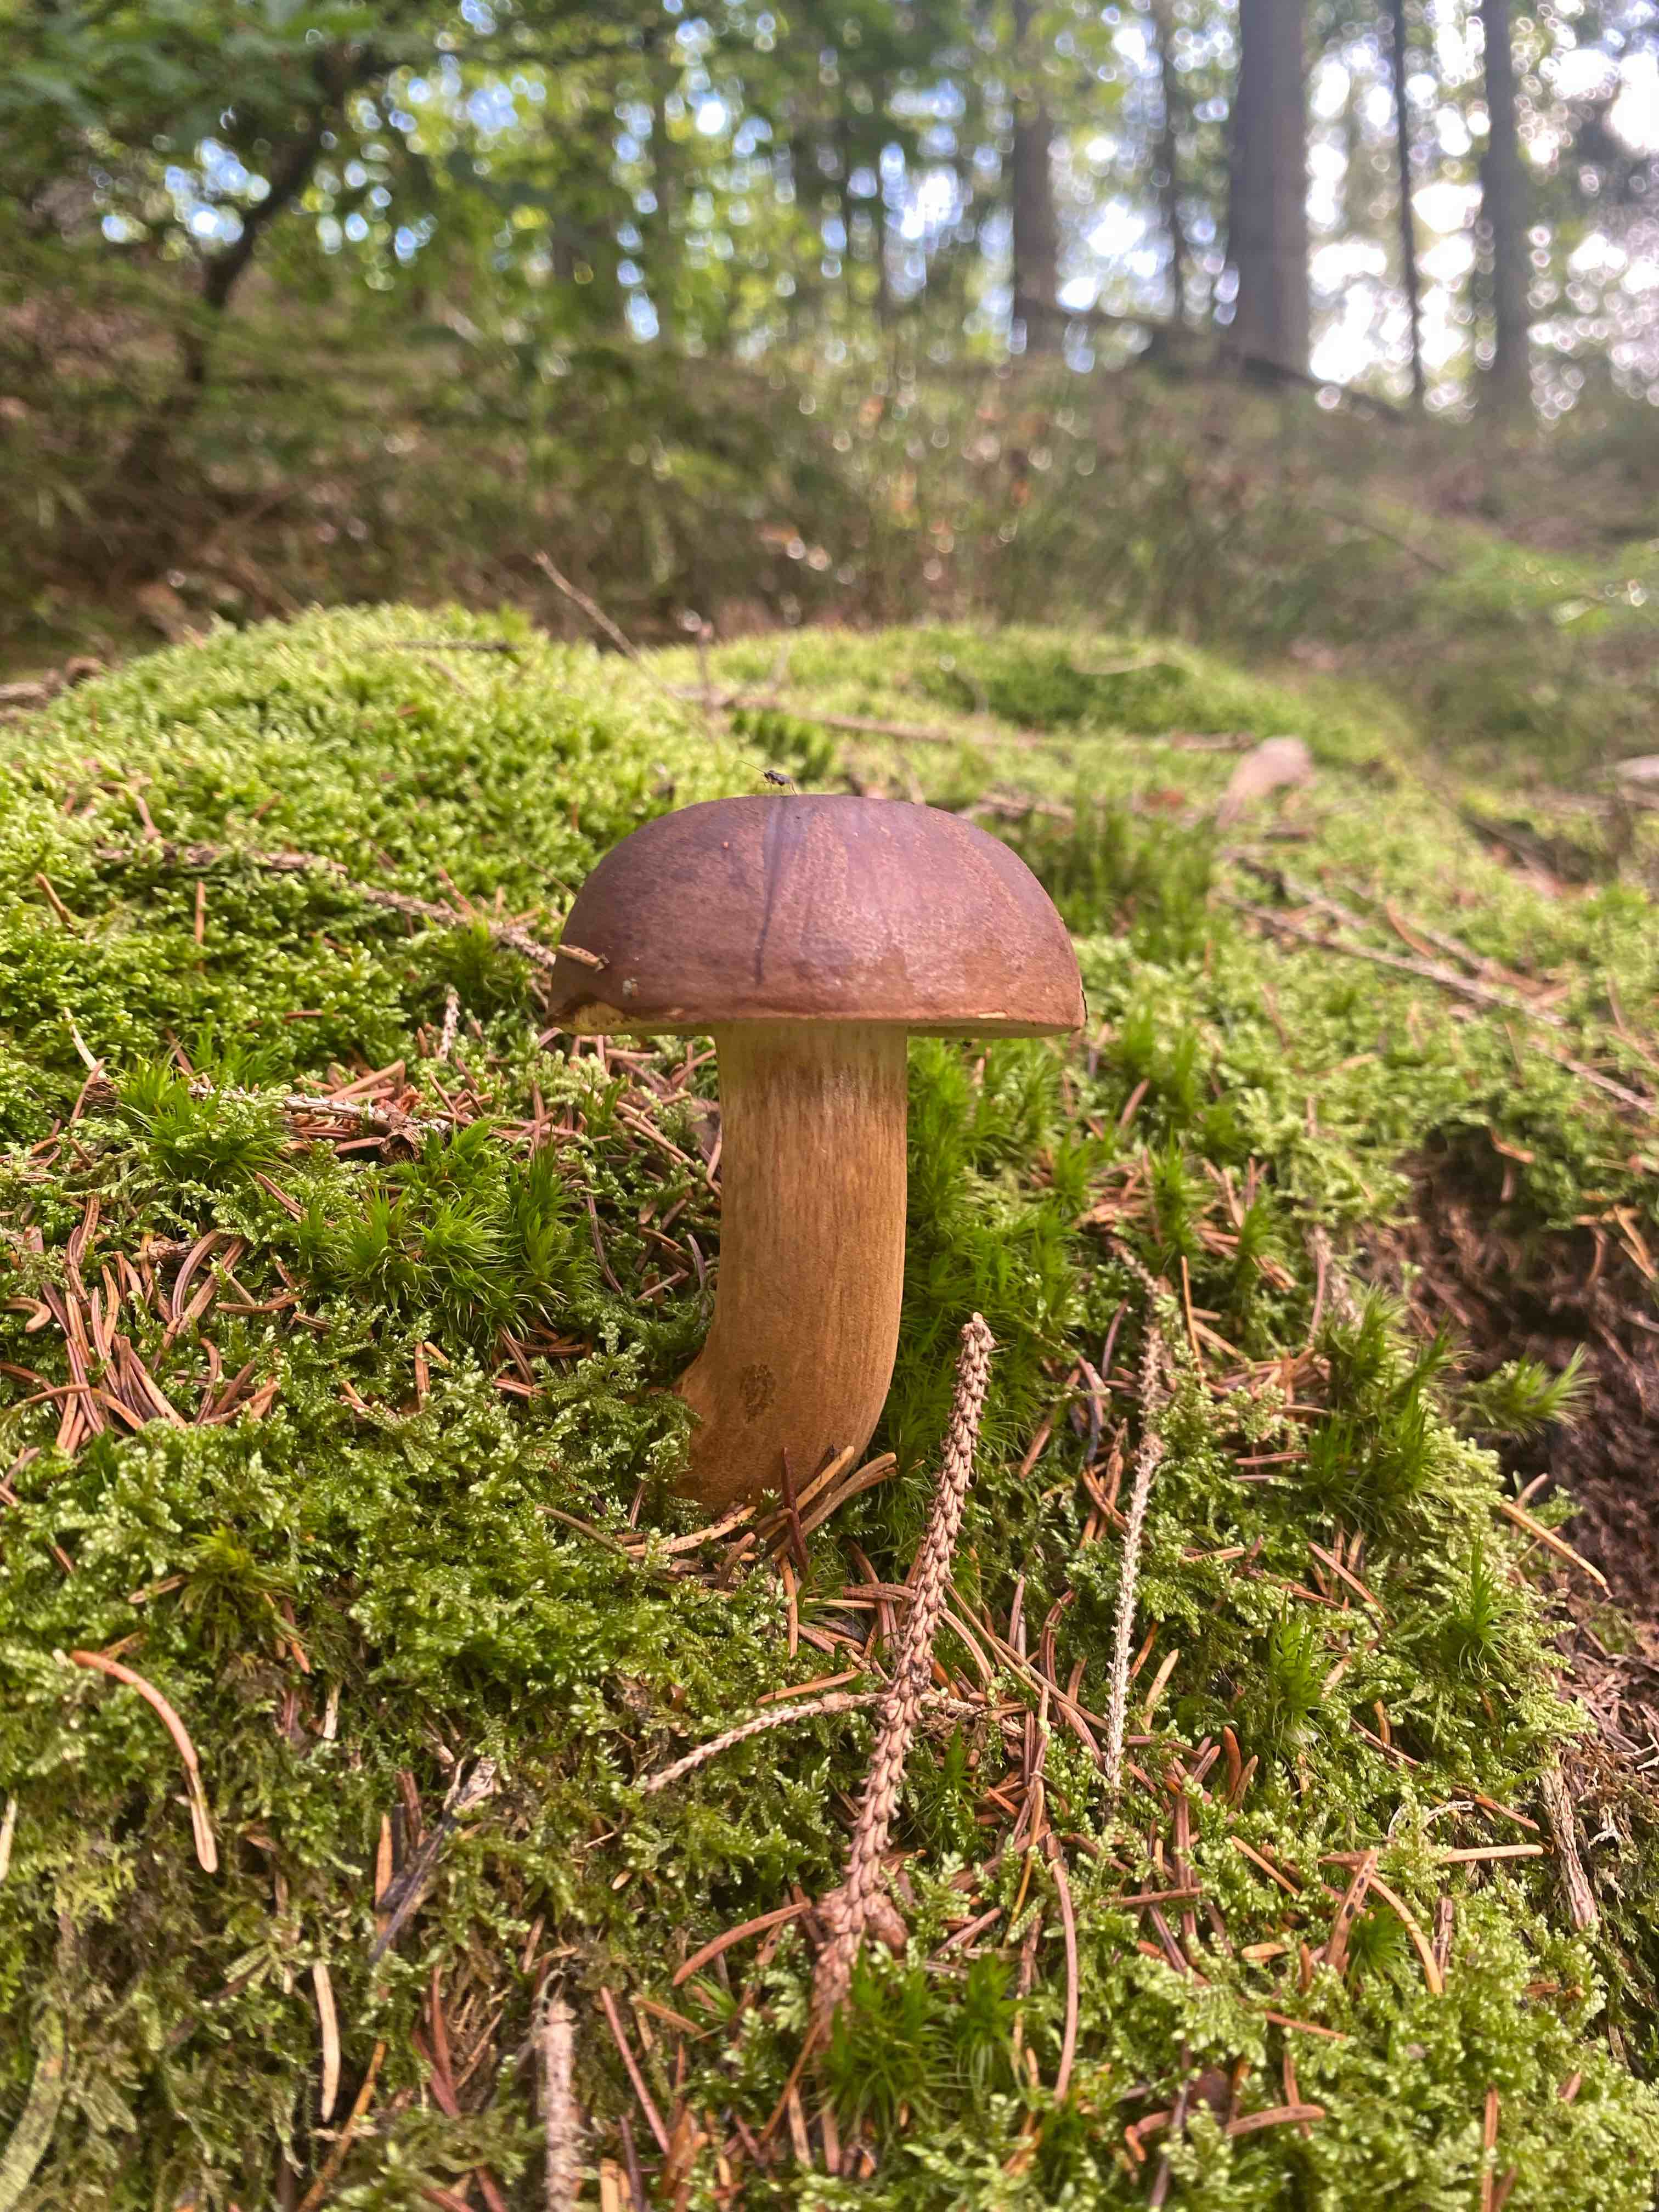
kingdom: Fungi
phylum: Basidiomycota
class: Agaricomycetes
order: Boletales
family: Boletaceae
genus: Imleria
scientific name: Imleria badia
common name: brunstokket rørhat
